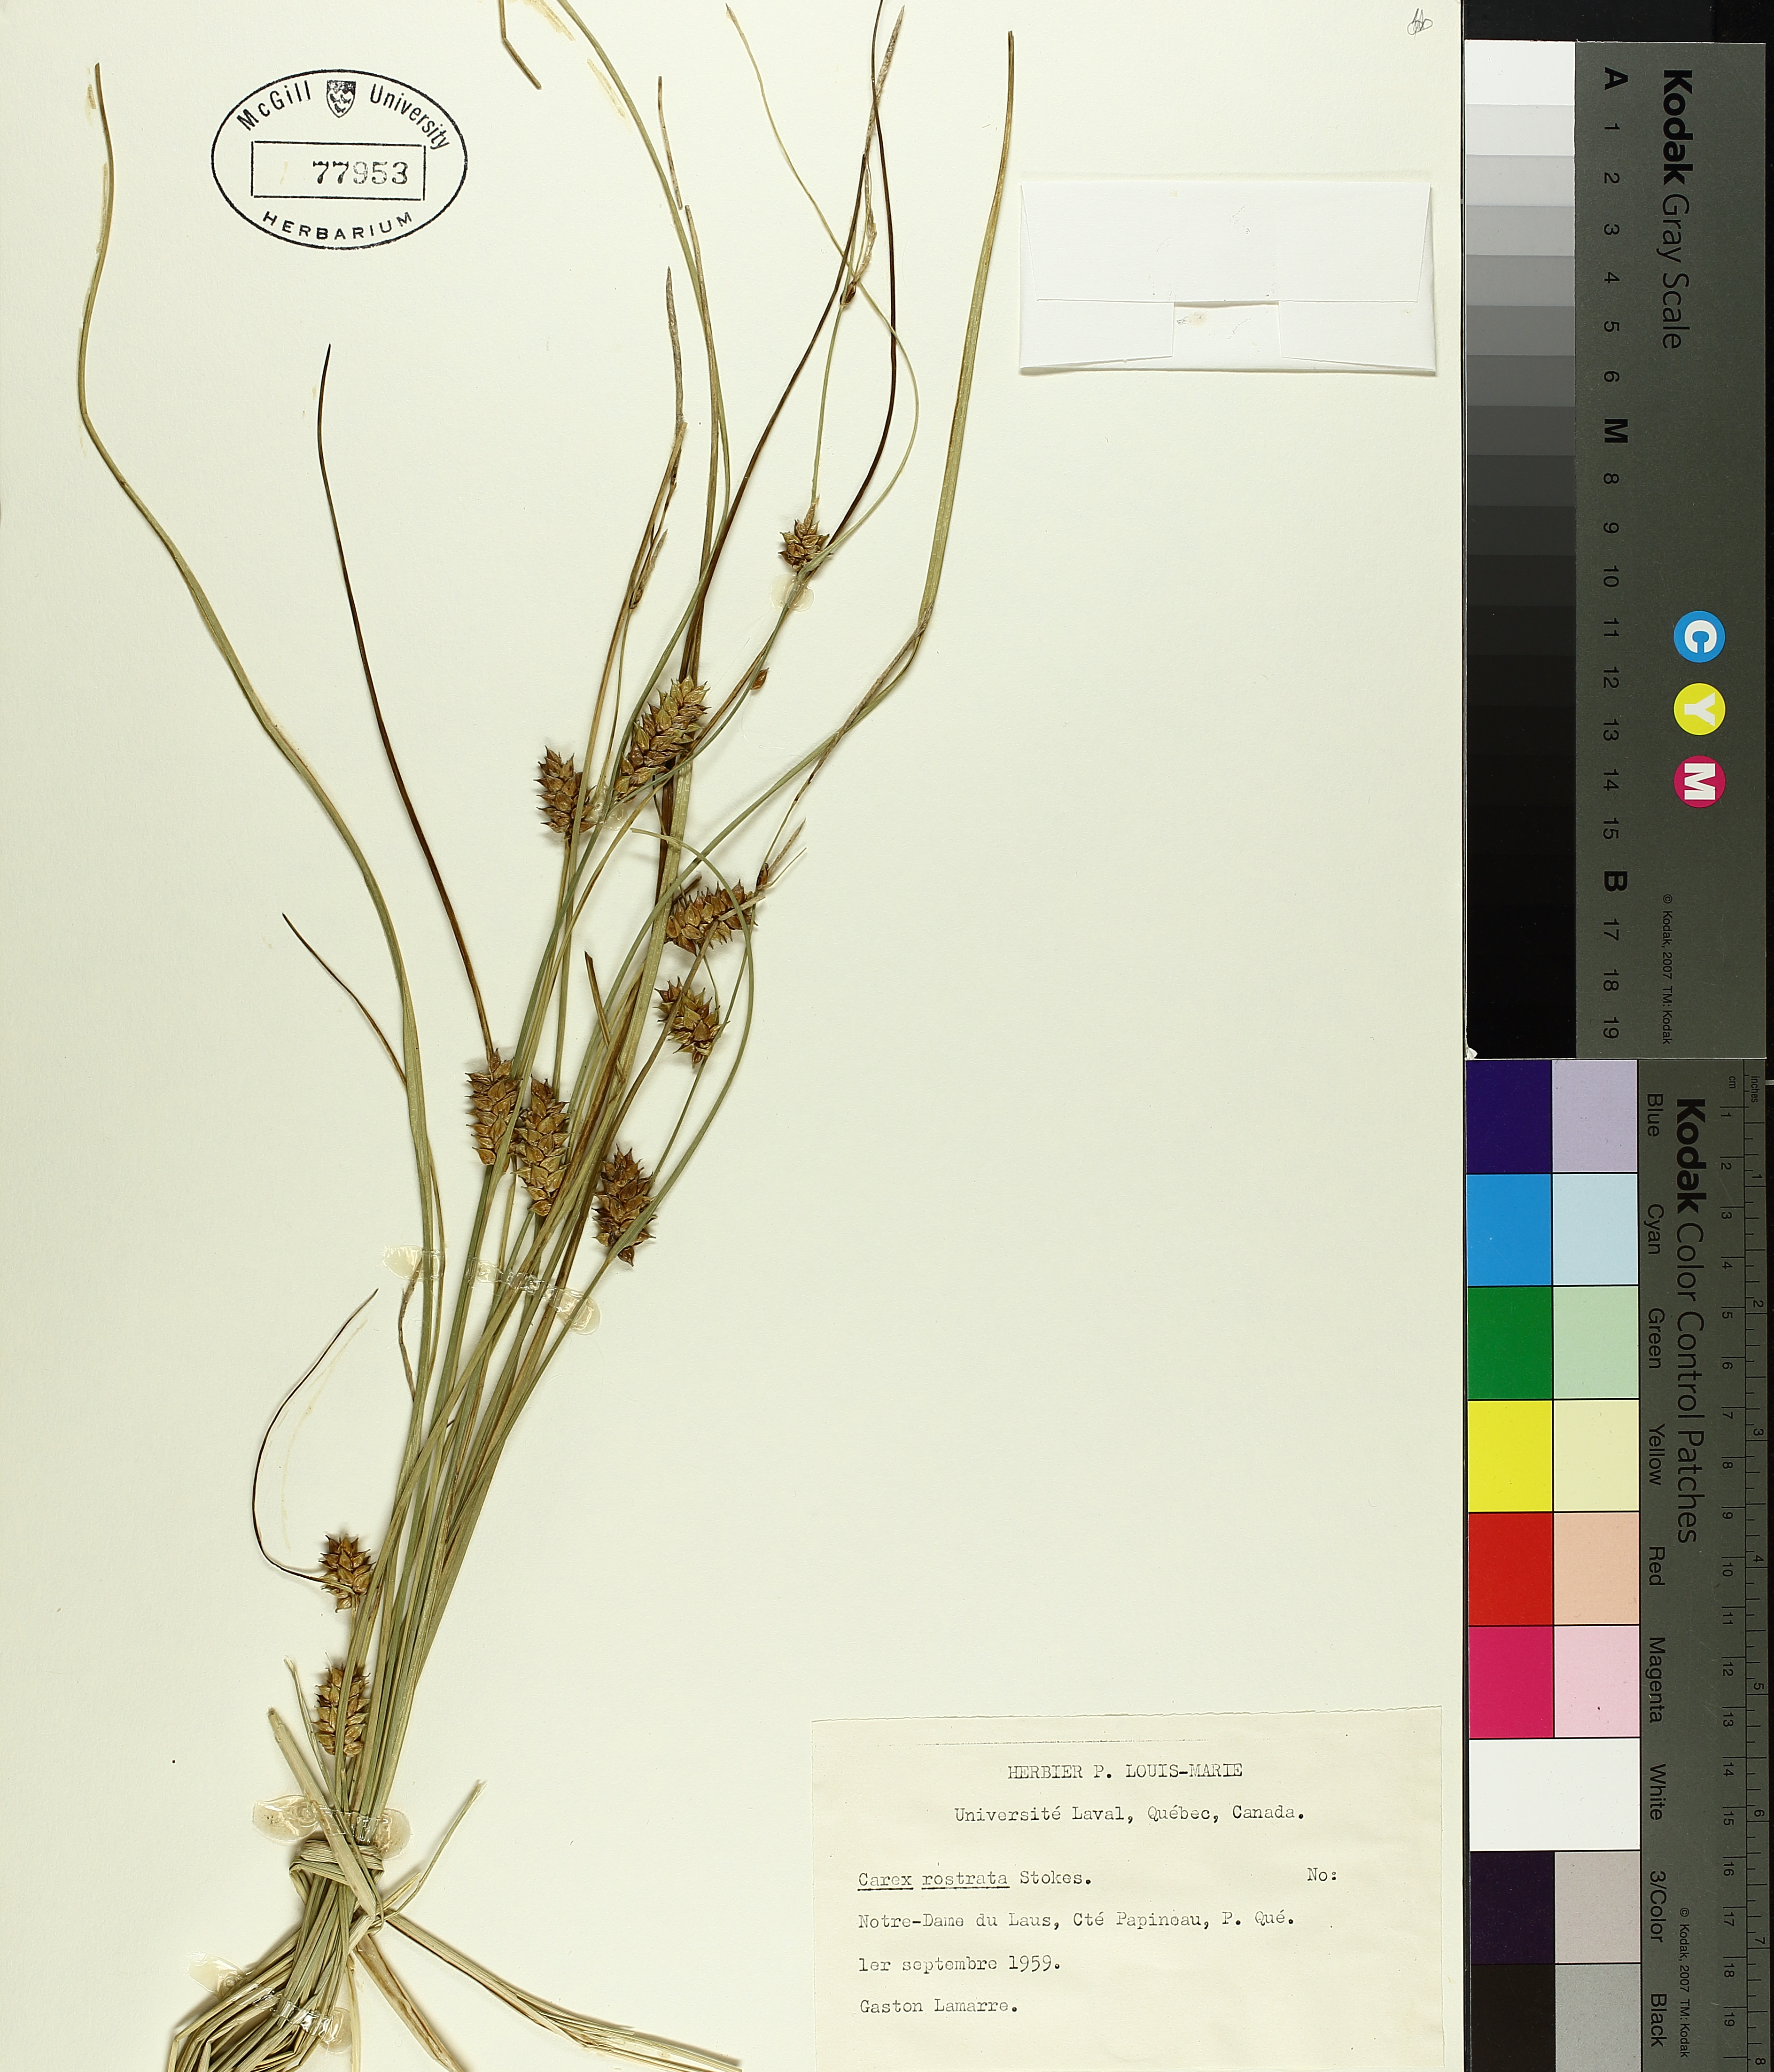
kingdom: Plantae
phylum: Tracheophyta
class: Liliopsida
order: Poales
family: Cyperaceae
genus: Carex
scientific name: Carex rostrata
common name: Bottle sedge
